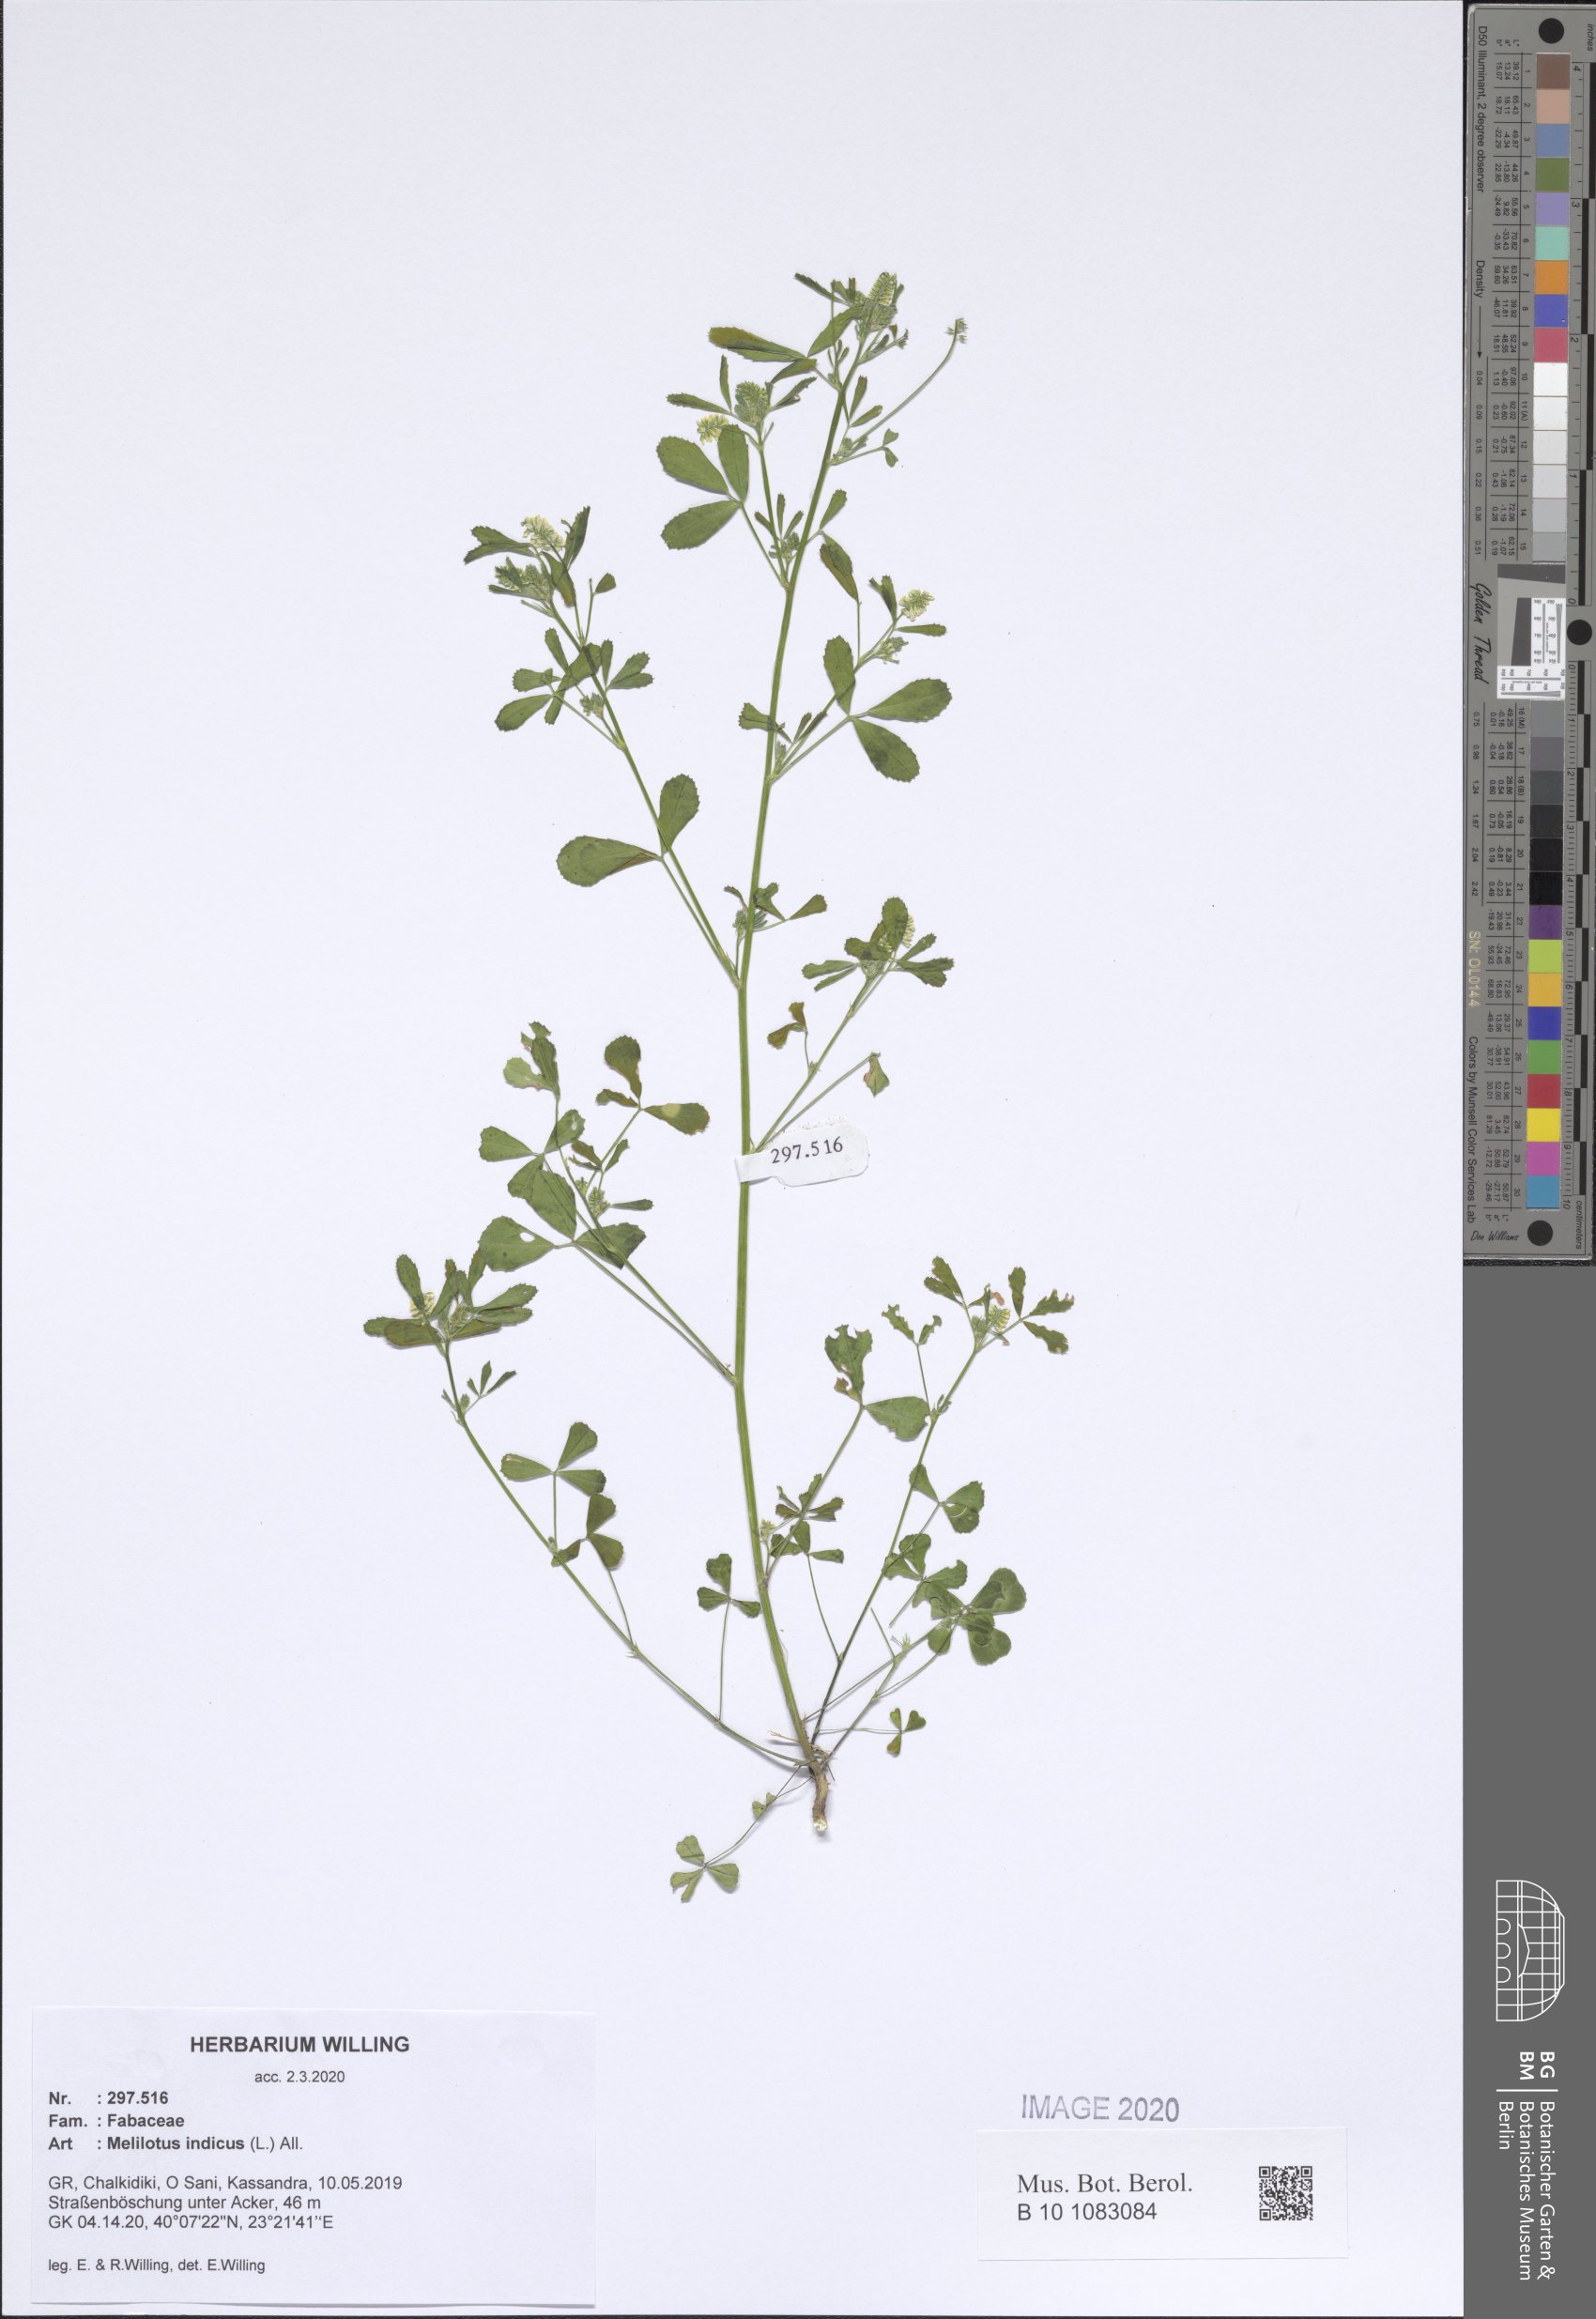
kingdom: Plantae
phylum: Tracheophyta
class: Magnoliopsida
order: Fabales
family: Fabaceae
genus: Melilotus
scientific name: Melilotus indicus
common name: Small melilot
